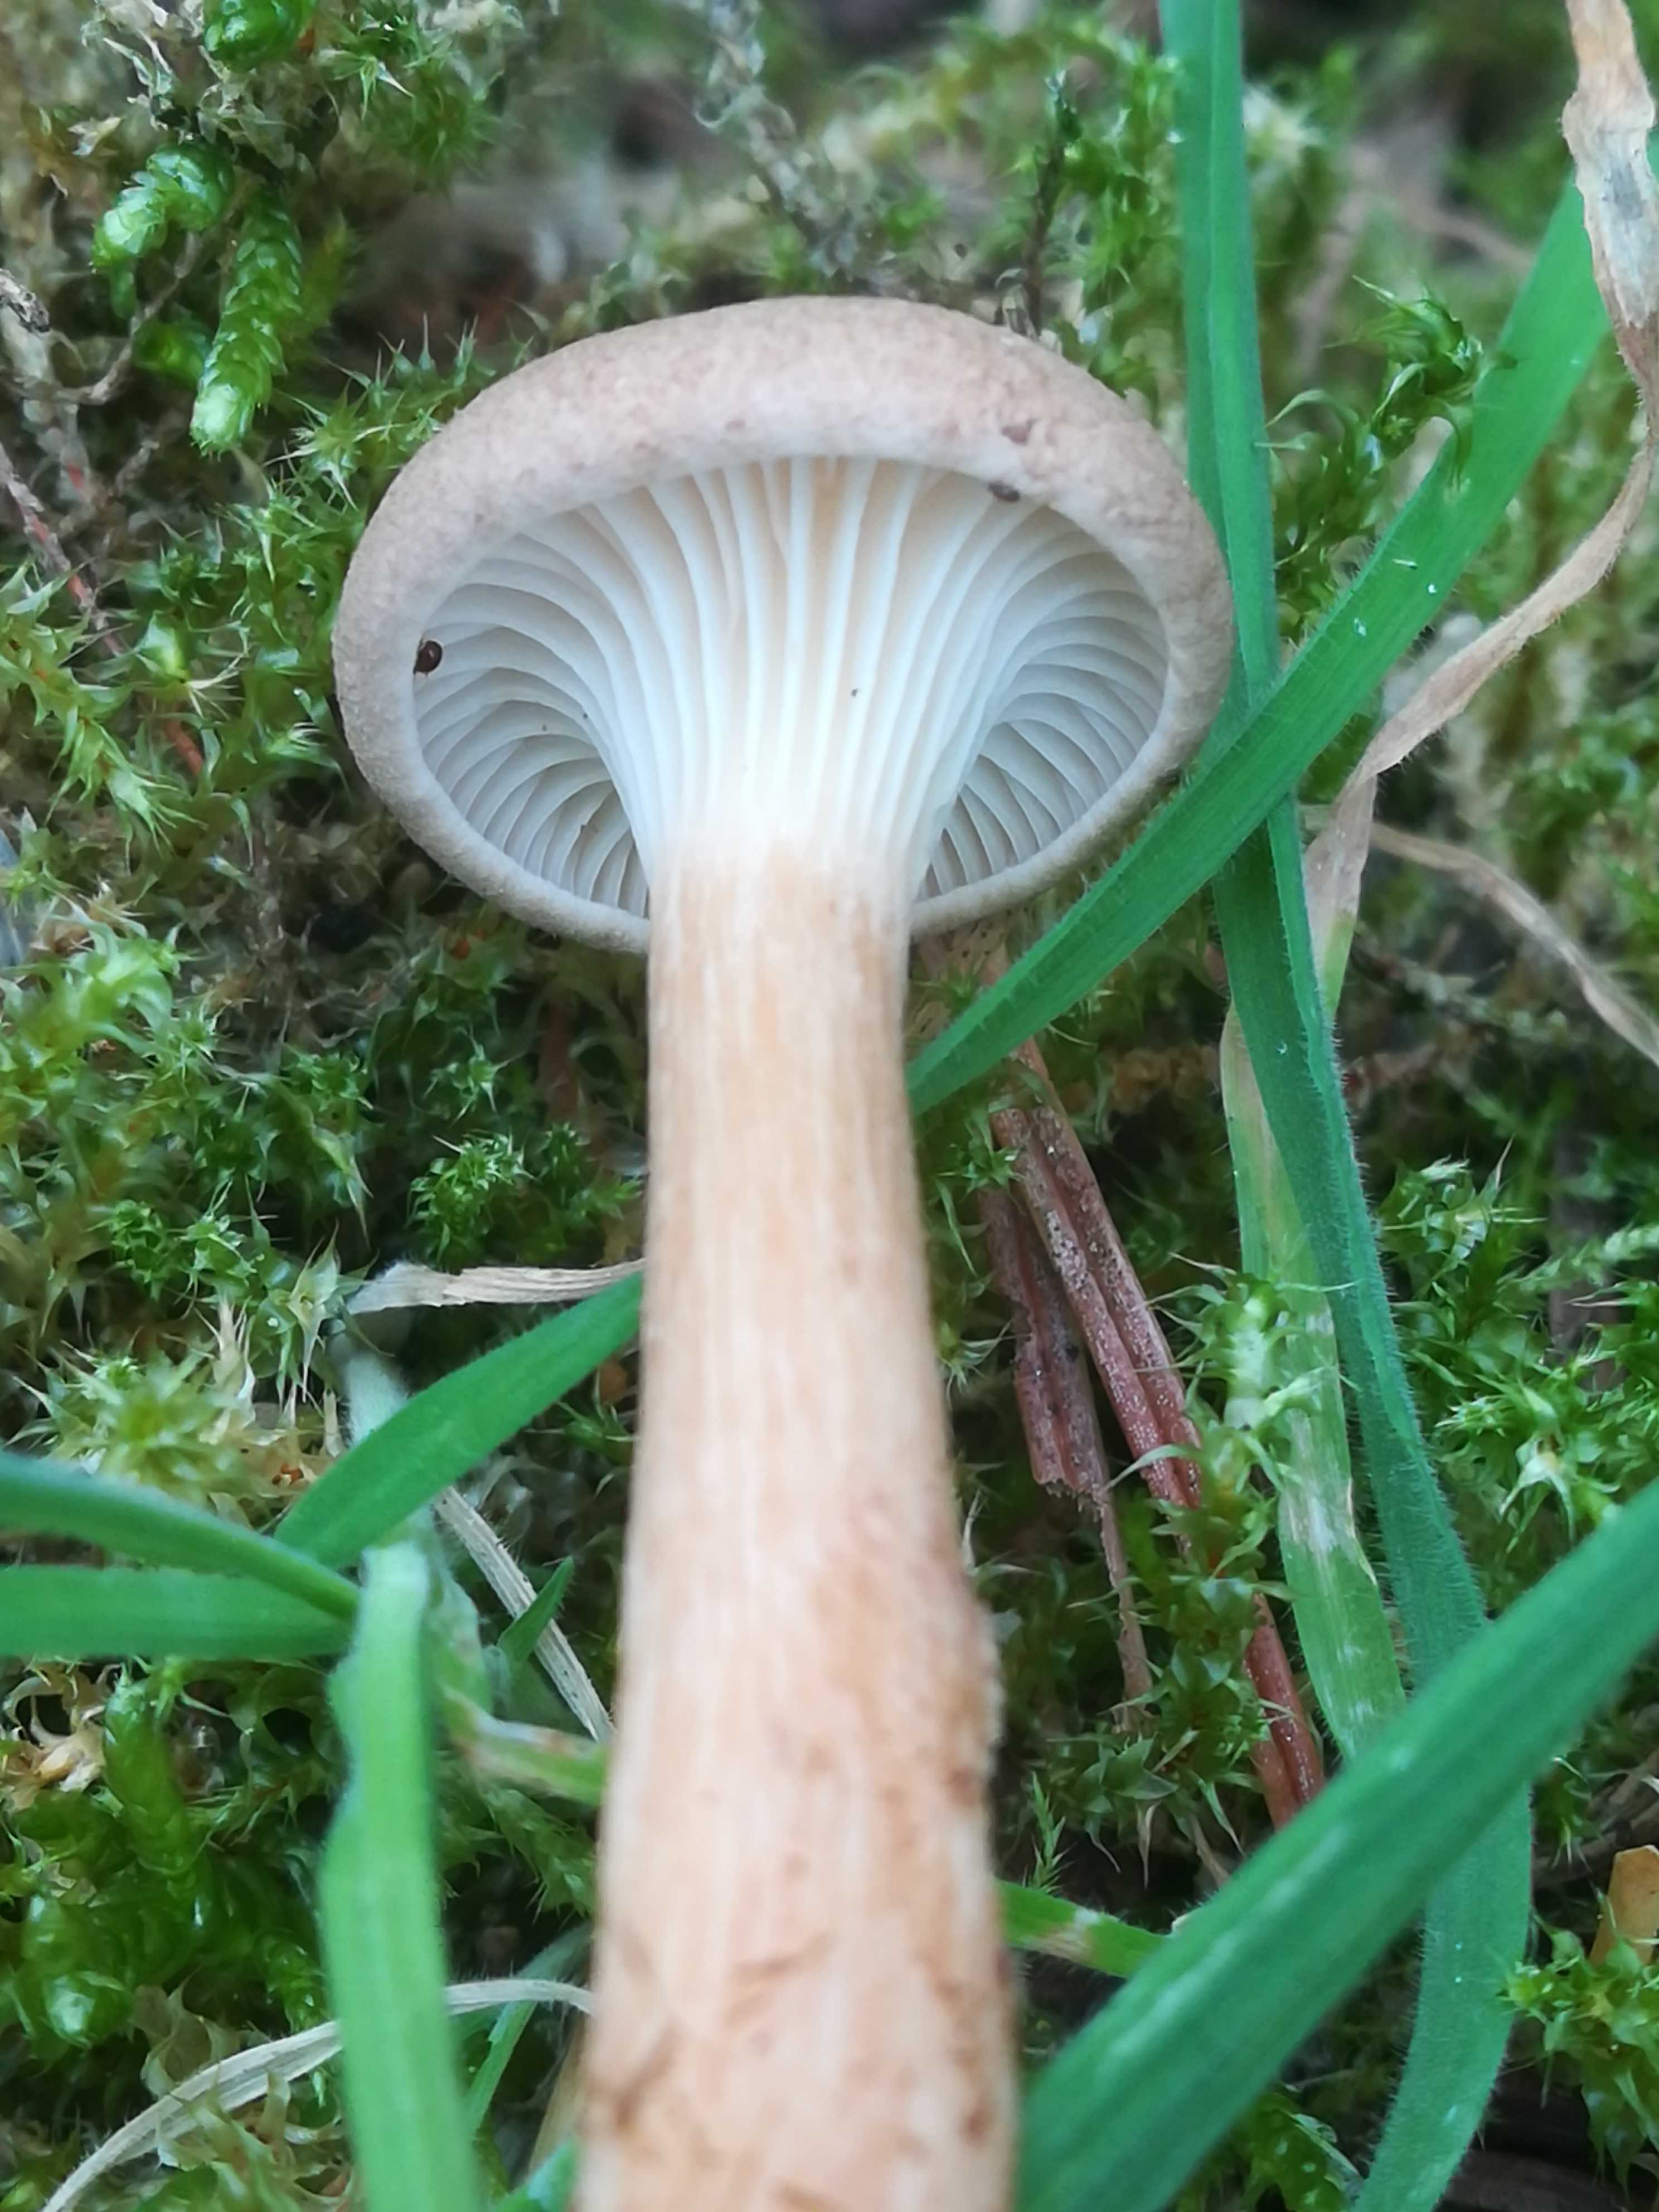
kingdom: Fungi
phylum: Basidiomycota
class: Agaricomycetes
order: Agaricales
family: Tricholomataceae
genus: Infundibulicybe
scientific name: Infundibulicybe
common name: tragthat
